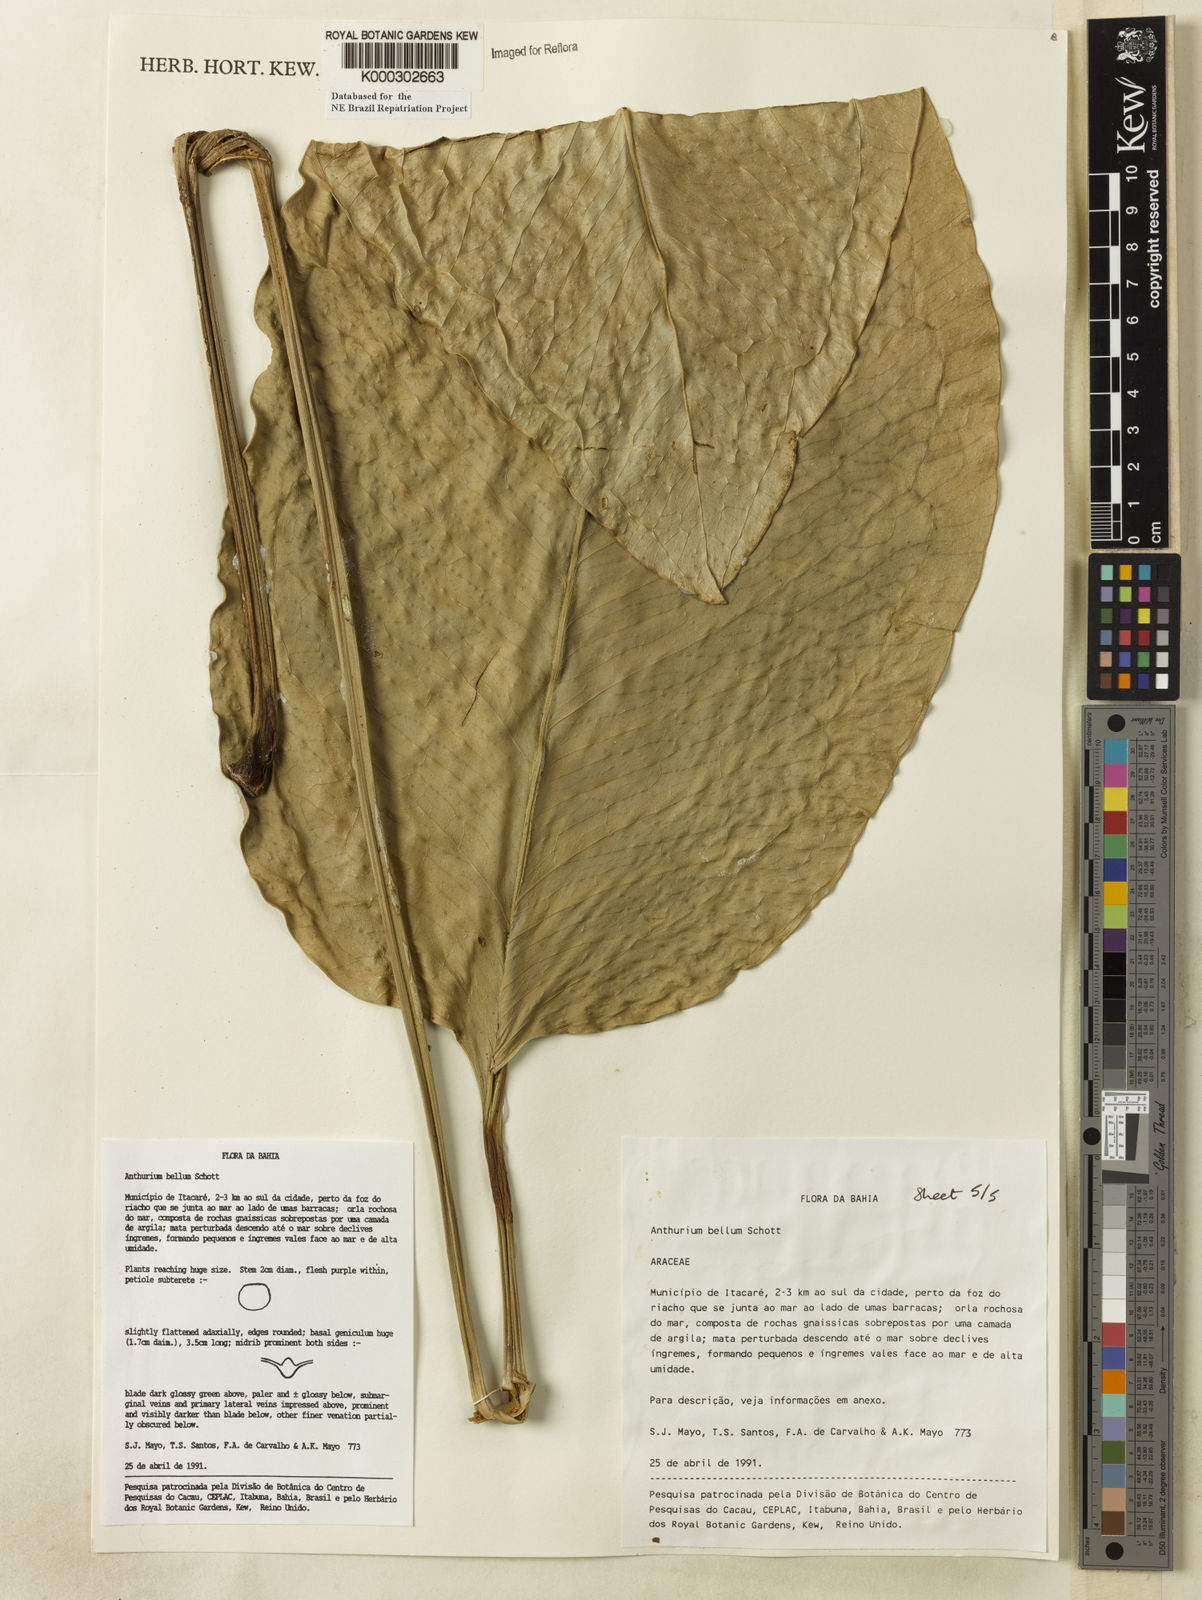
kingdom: Plantae
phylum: Tracheophyta
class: Liliopsida
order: Alismatales
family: Araceae
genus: Anthurium
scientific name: Anthurium bellum
